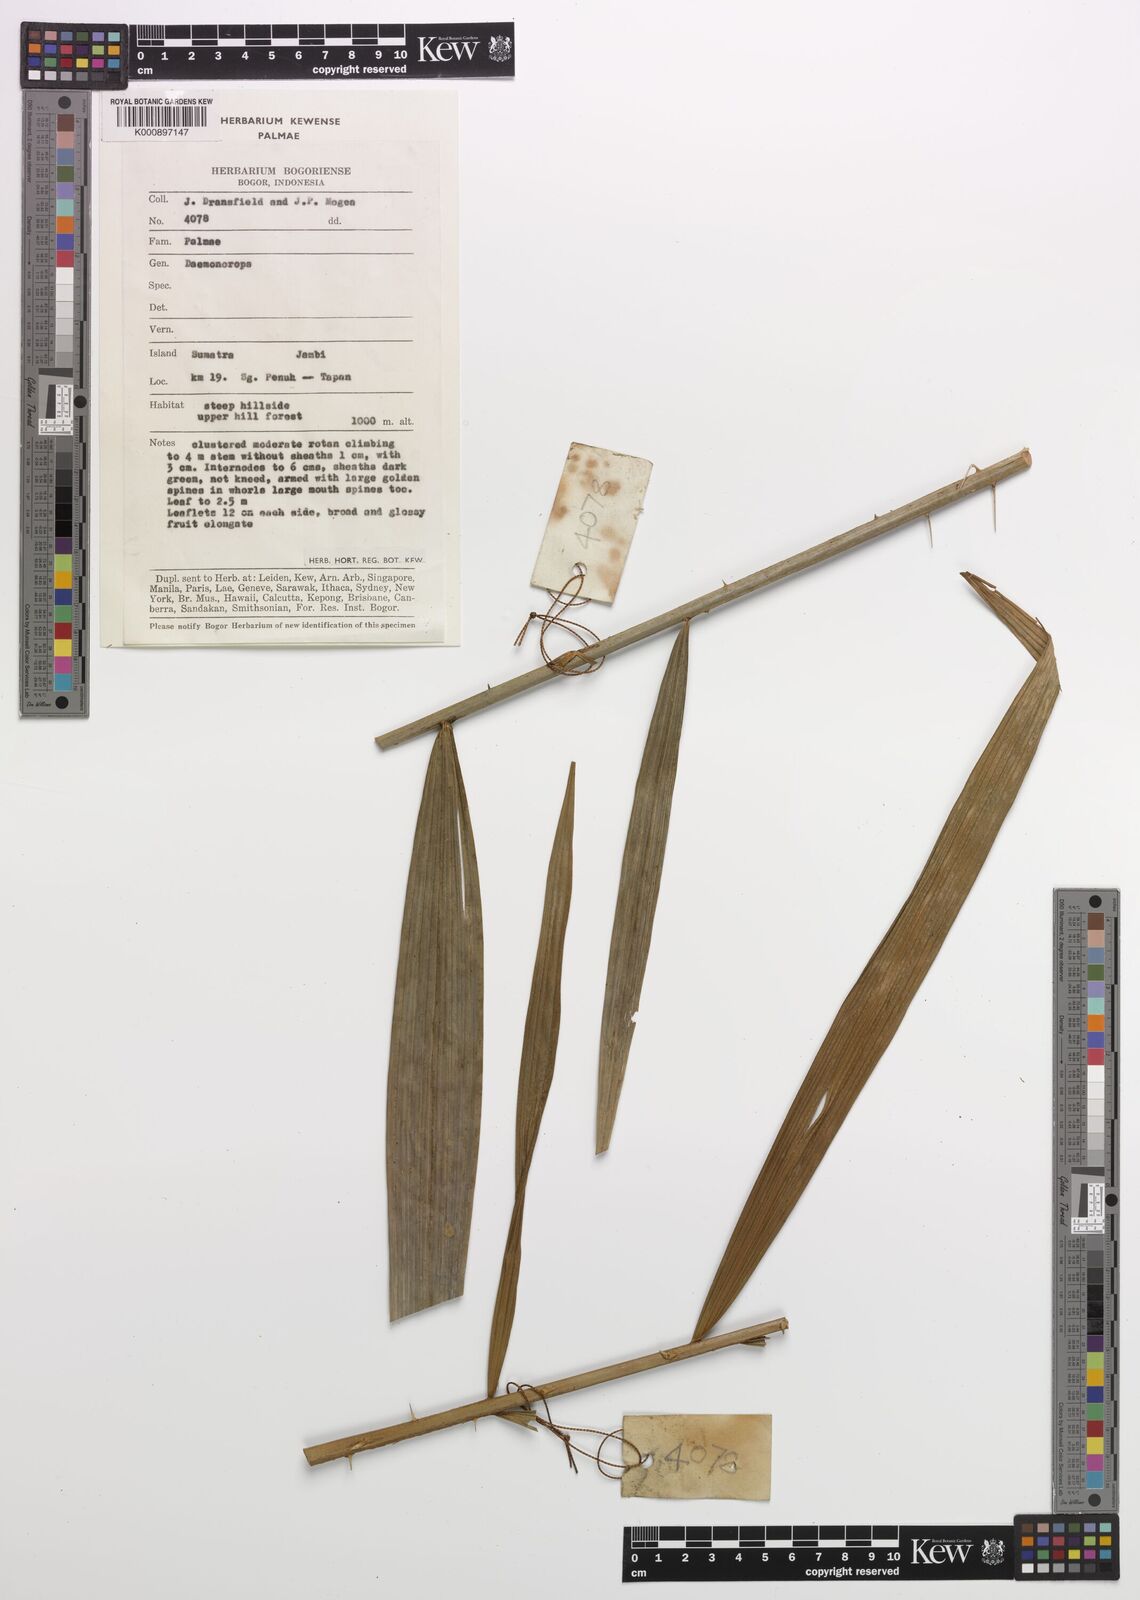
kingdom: Plantae
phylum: Tracheophyta
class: Liliopsida
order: Arecales
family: Arecaceae
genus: Calamus
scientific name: Calamus
